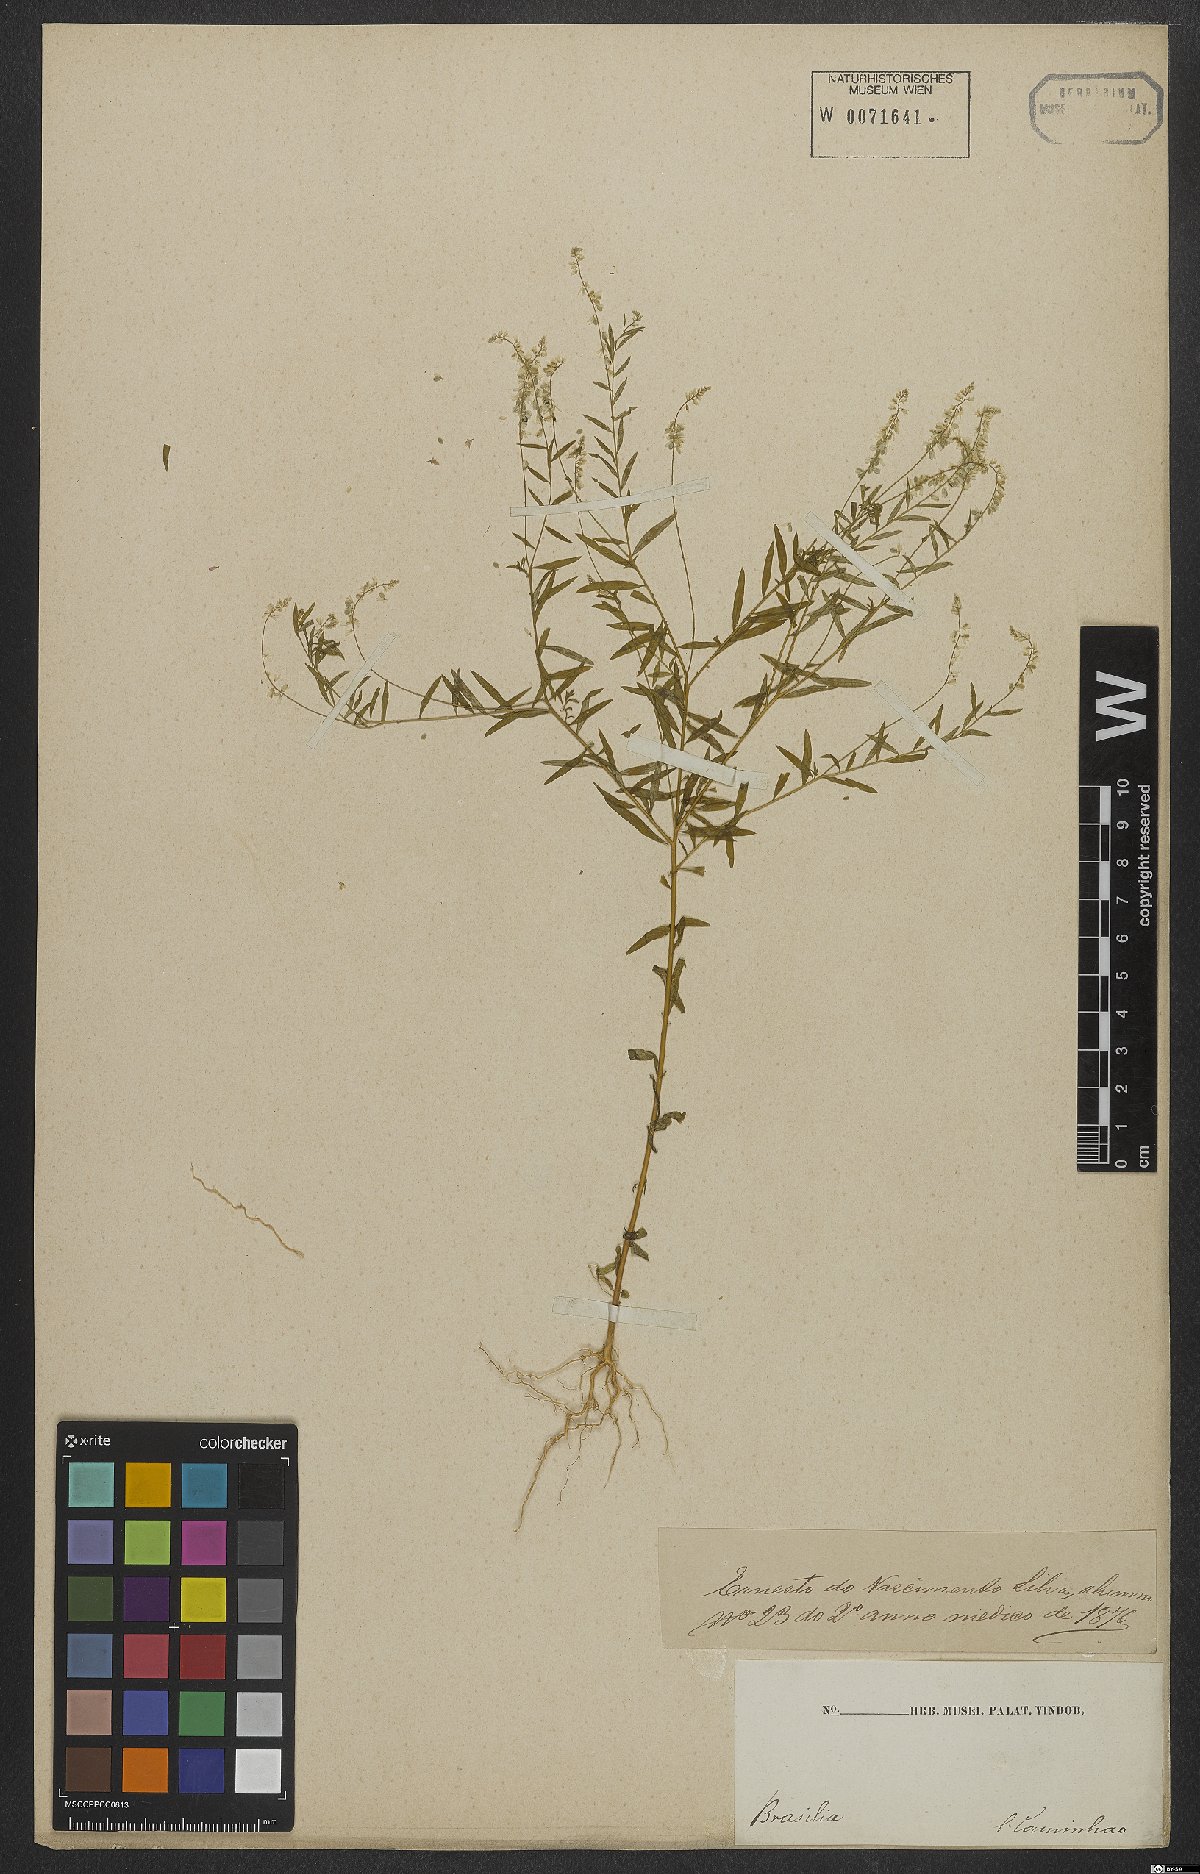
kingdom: Plantae
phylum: Tracheophyta
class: Magnoliopsida
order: Fabales
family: Polygalaceae
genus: Polygala
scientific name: Polygala exilis
